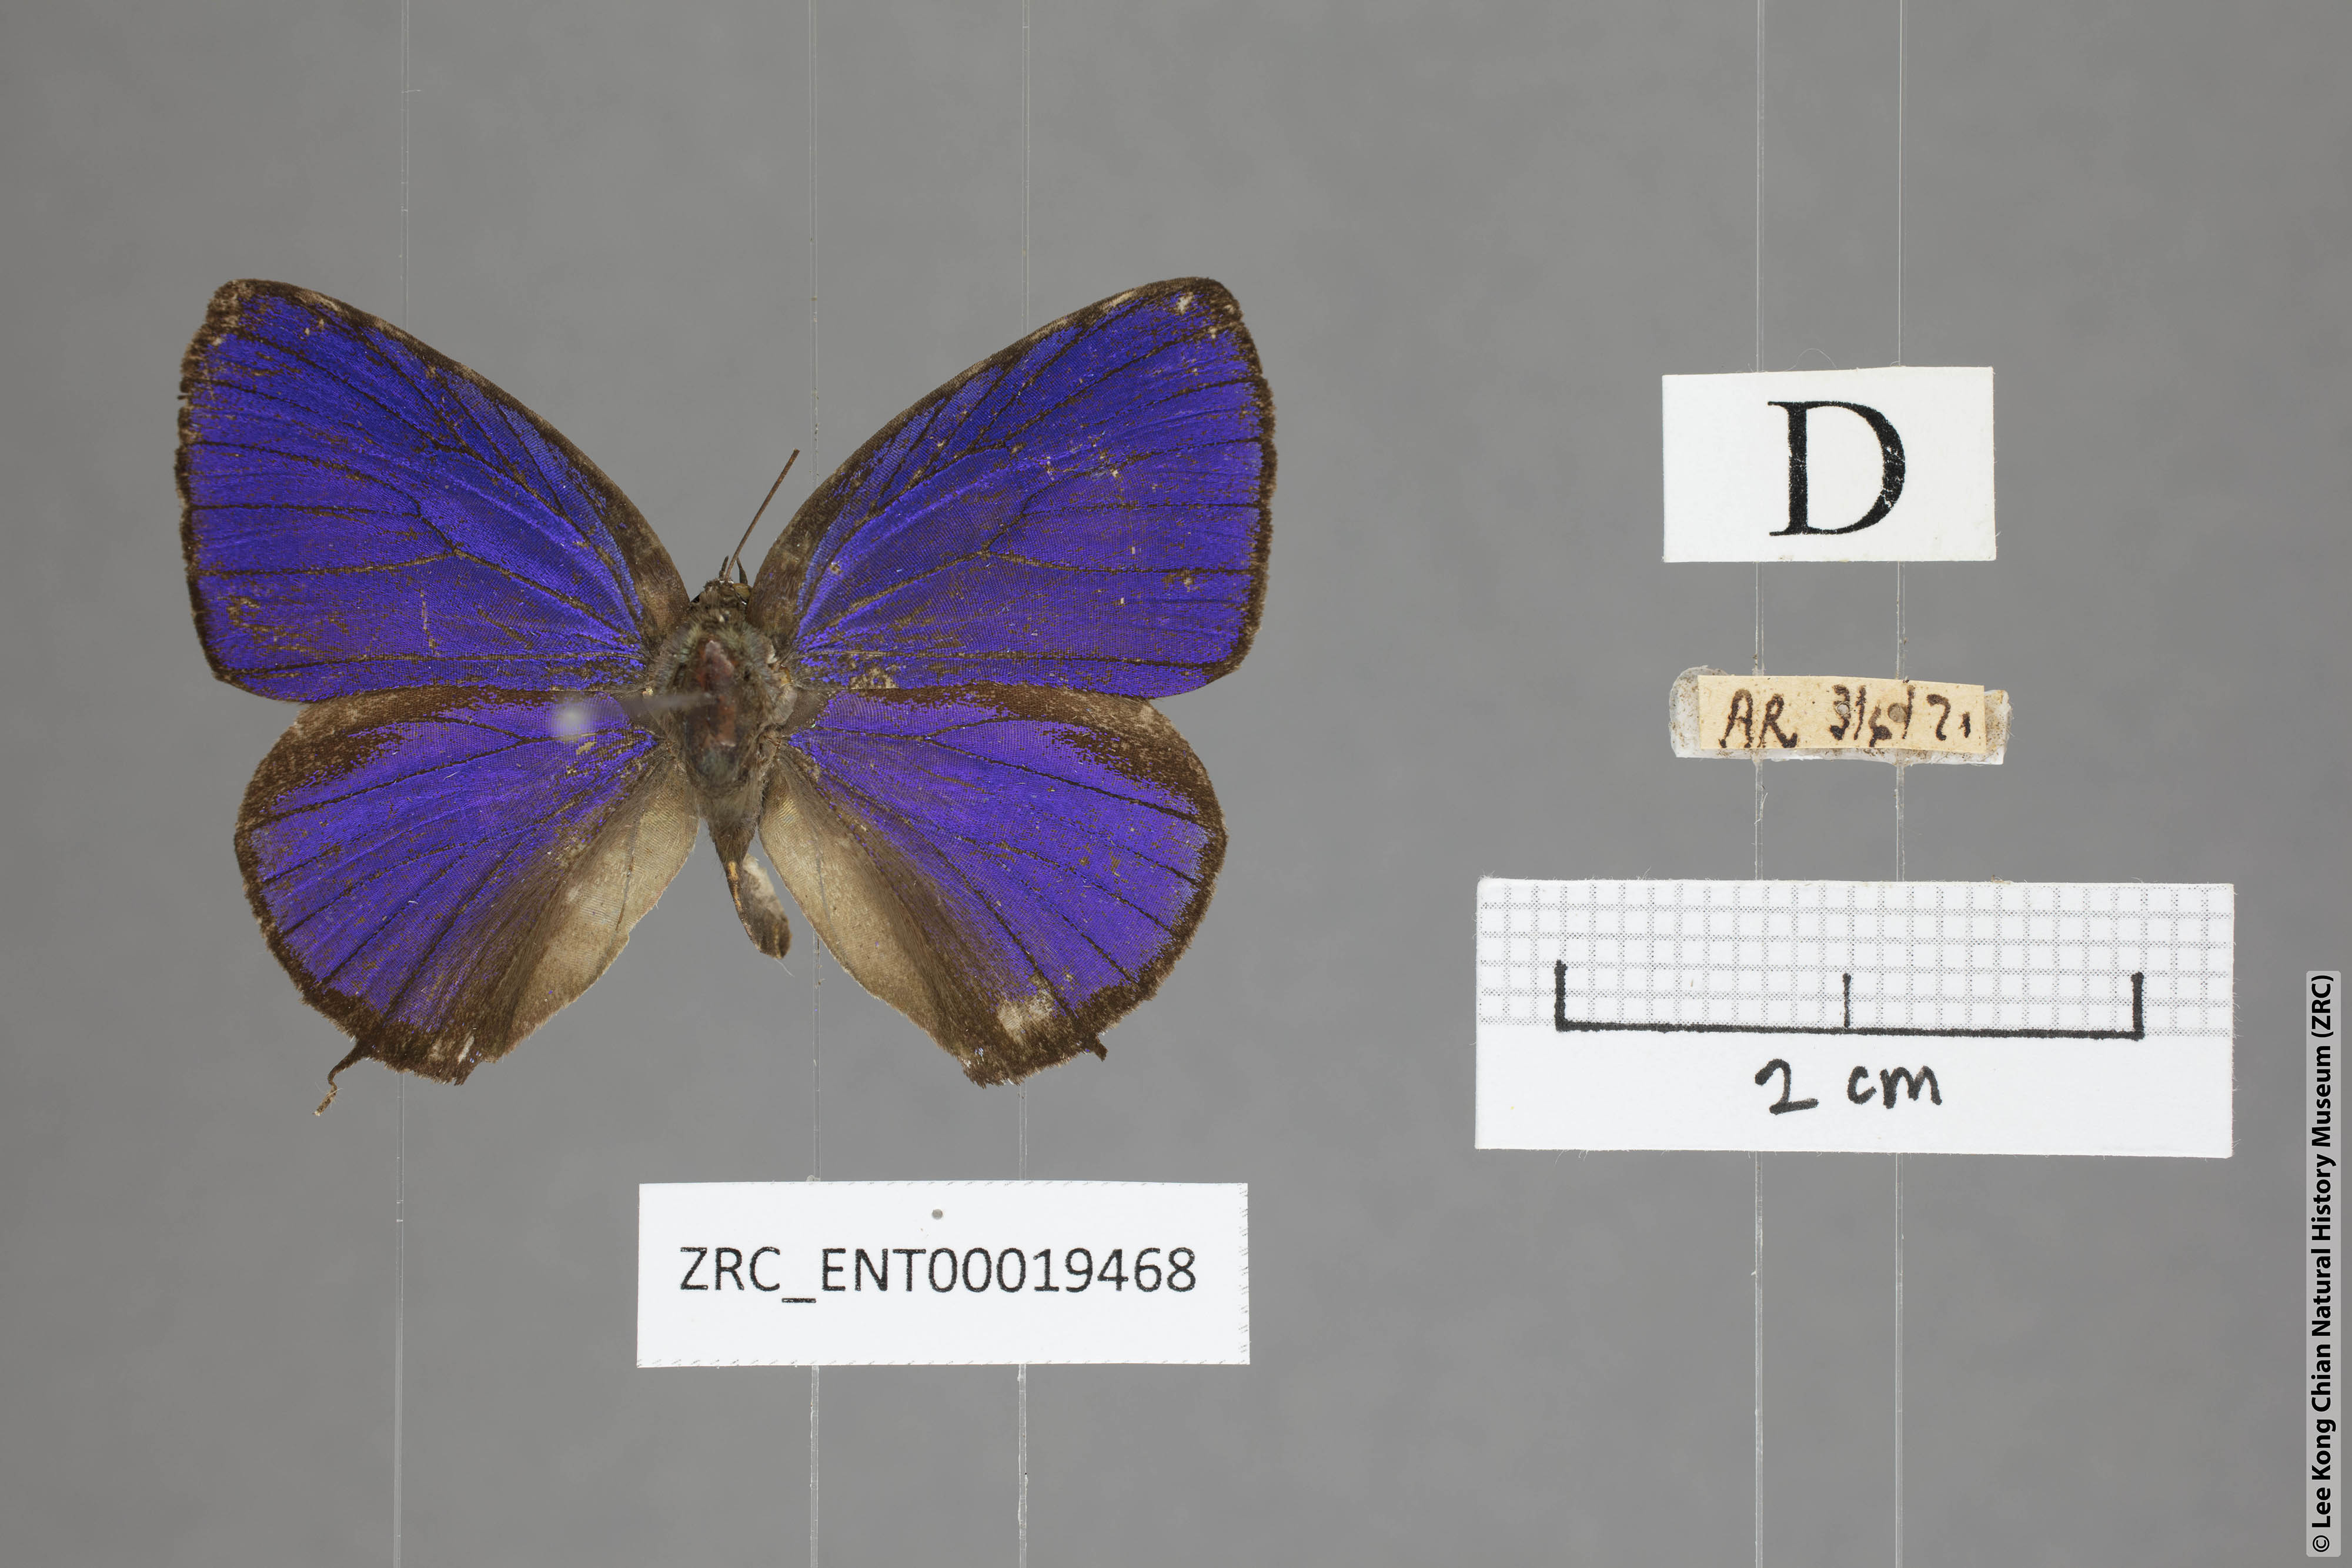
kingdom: Animalia
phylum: Arthropoda
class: Insecta
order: Lepidoptera
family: Lycaenidae
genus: Arhopala
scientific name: Arhopala azinis
